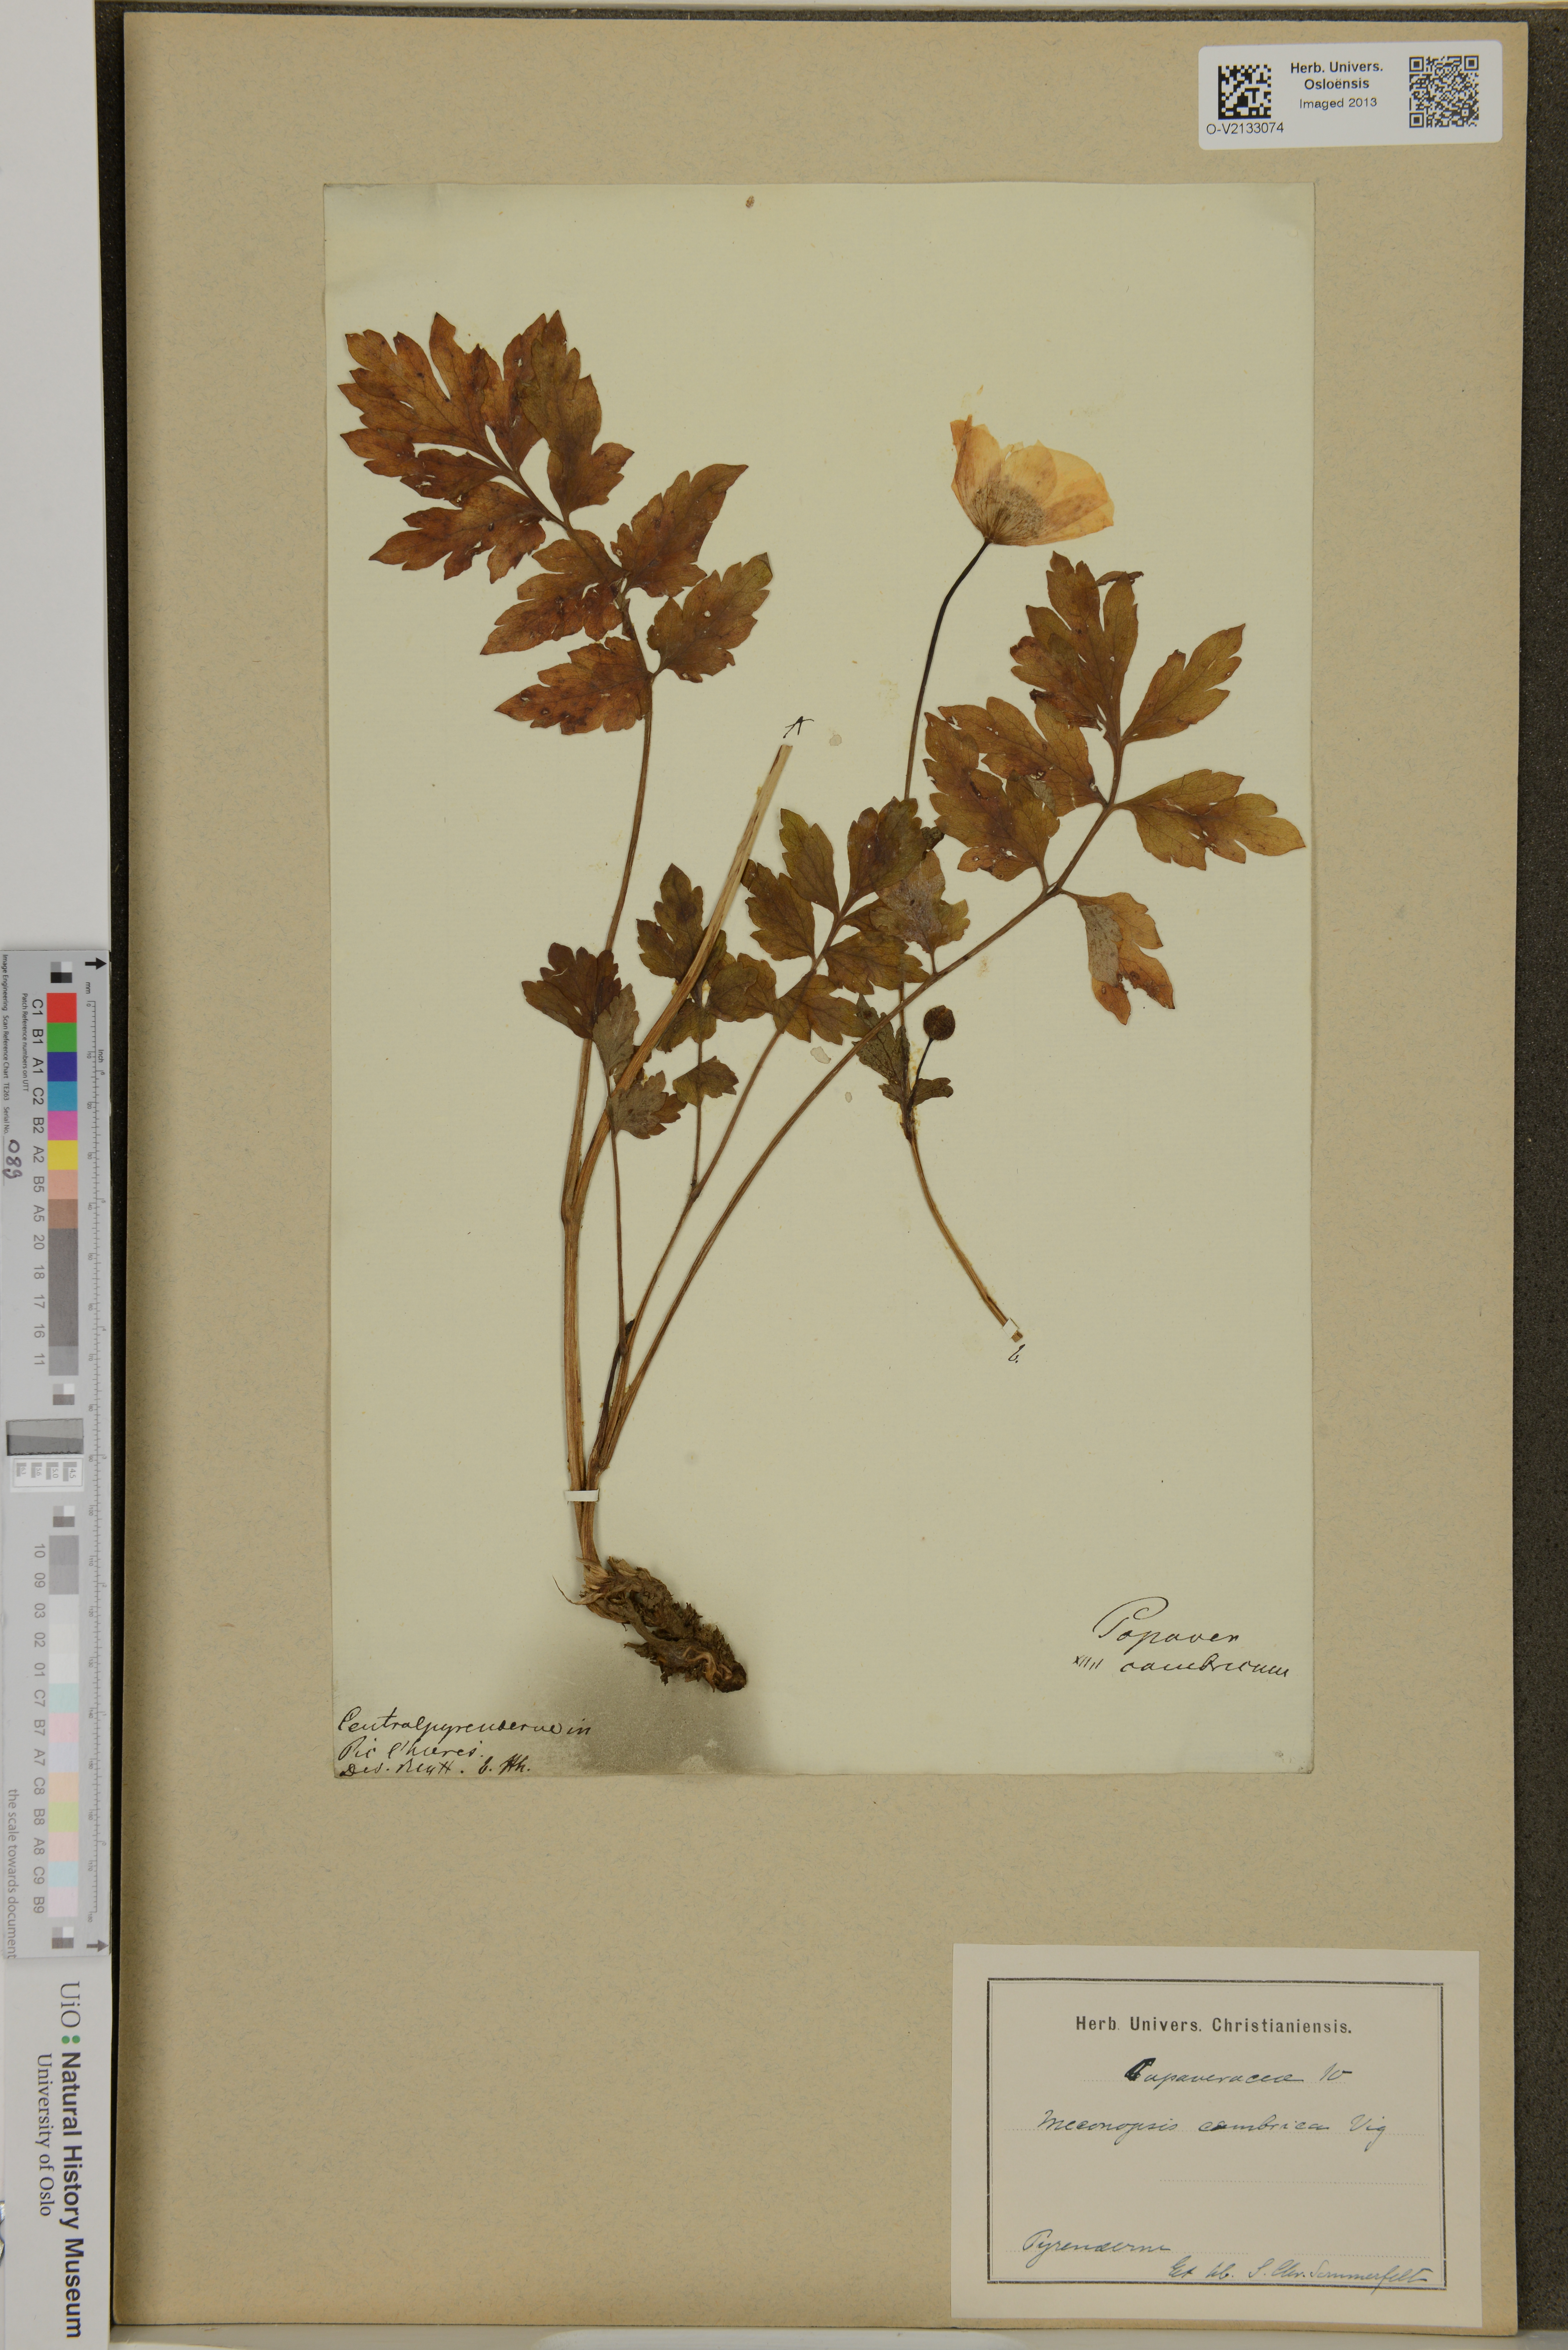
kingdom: Plantae
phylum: Tracheophyta
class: Magnoliopsida
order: Ranunculales
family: Papaveraceae
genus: Papaver
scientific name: Papaver cambricum
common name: Poppy
